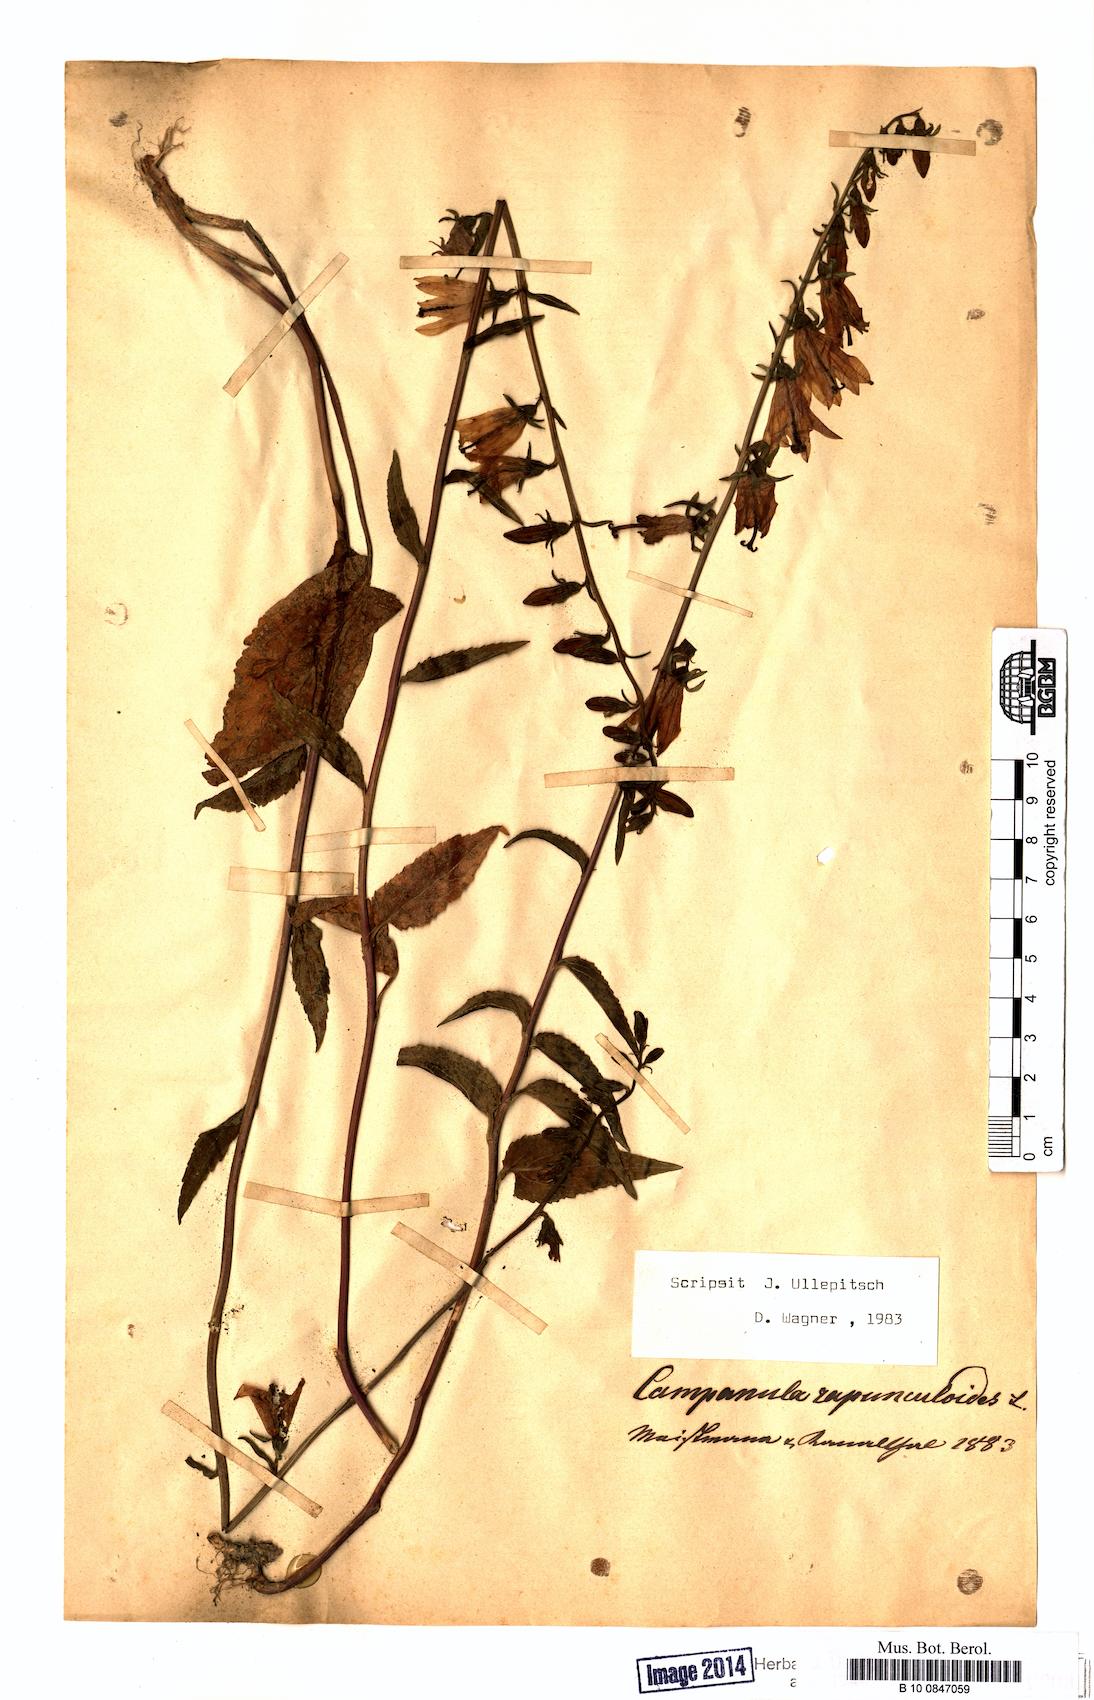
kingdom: Plantae
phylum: Tracheophyta
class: Magnoliopsida
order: Asterales
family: Campanulaceae
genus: Campanula
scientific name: Campanula rapunculoides
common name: Creeping bellflower
